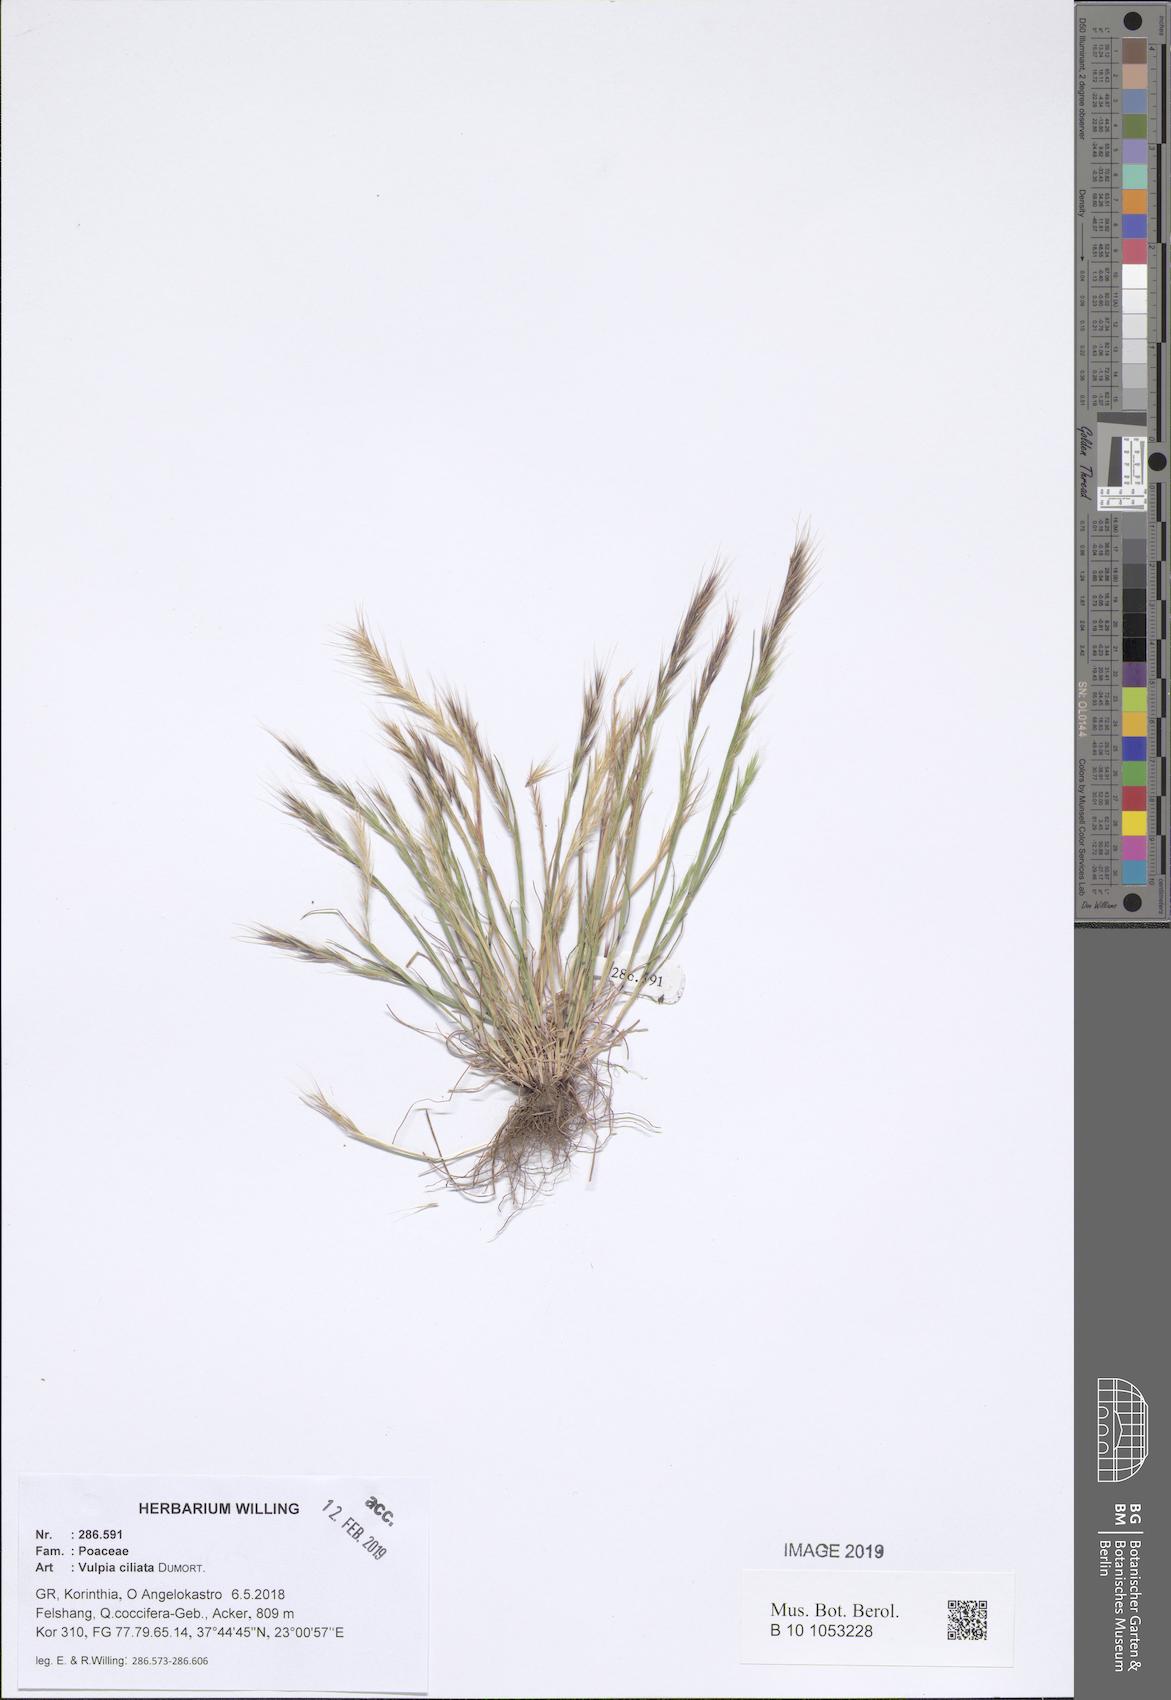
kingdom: Plantae
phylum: Tracheophyta
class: Liliopsida
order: Poales
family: Poaceae
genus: Festuca
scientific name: Festuca ambigua
